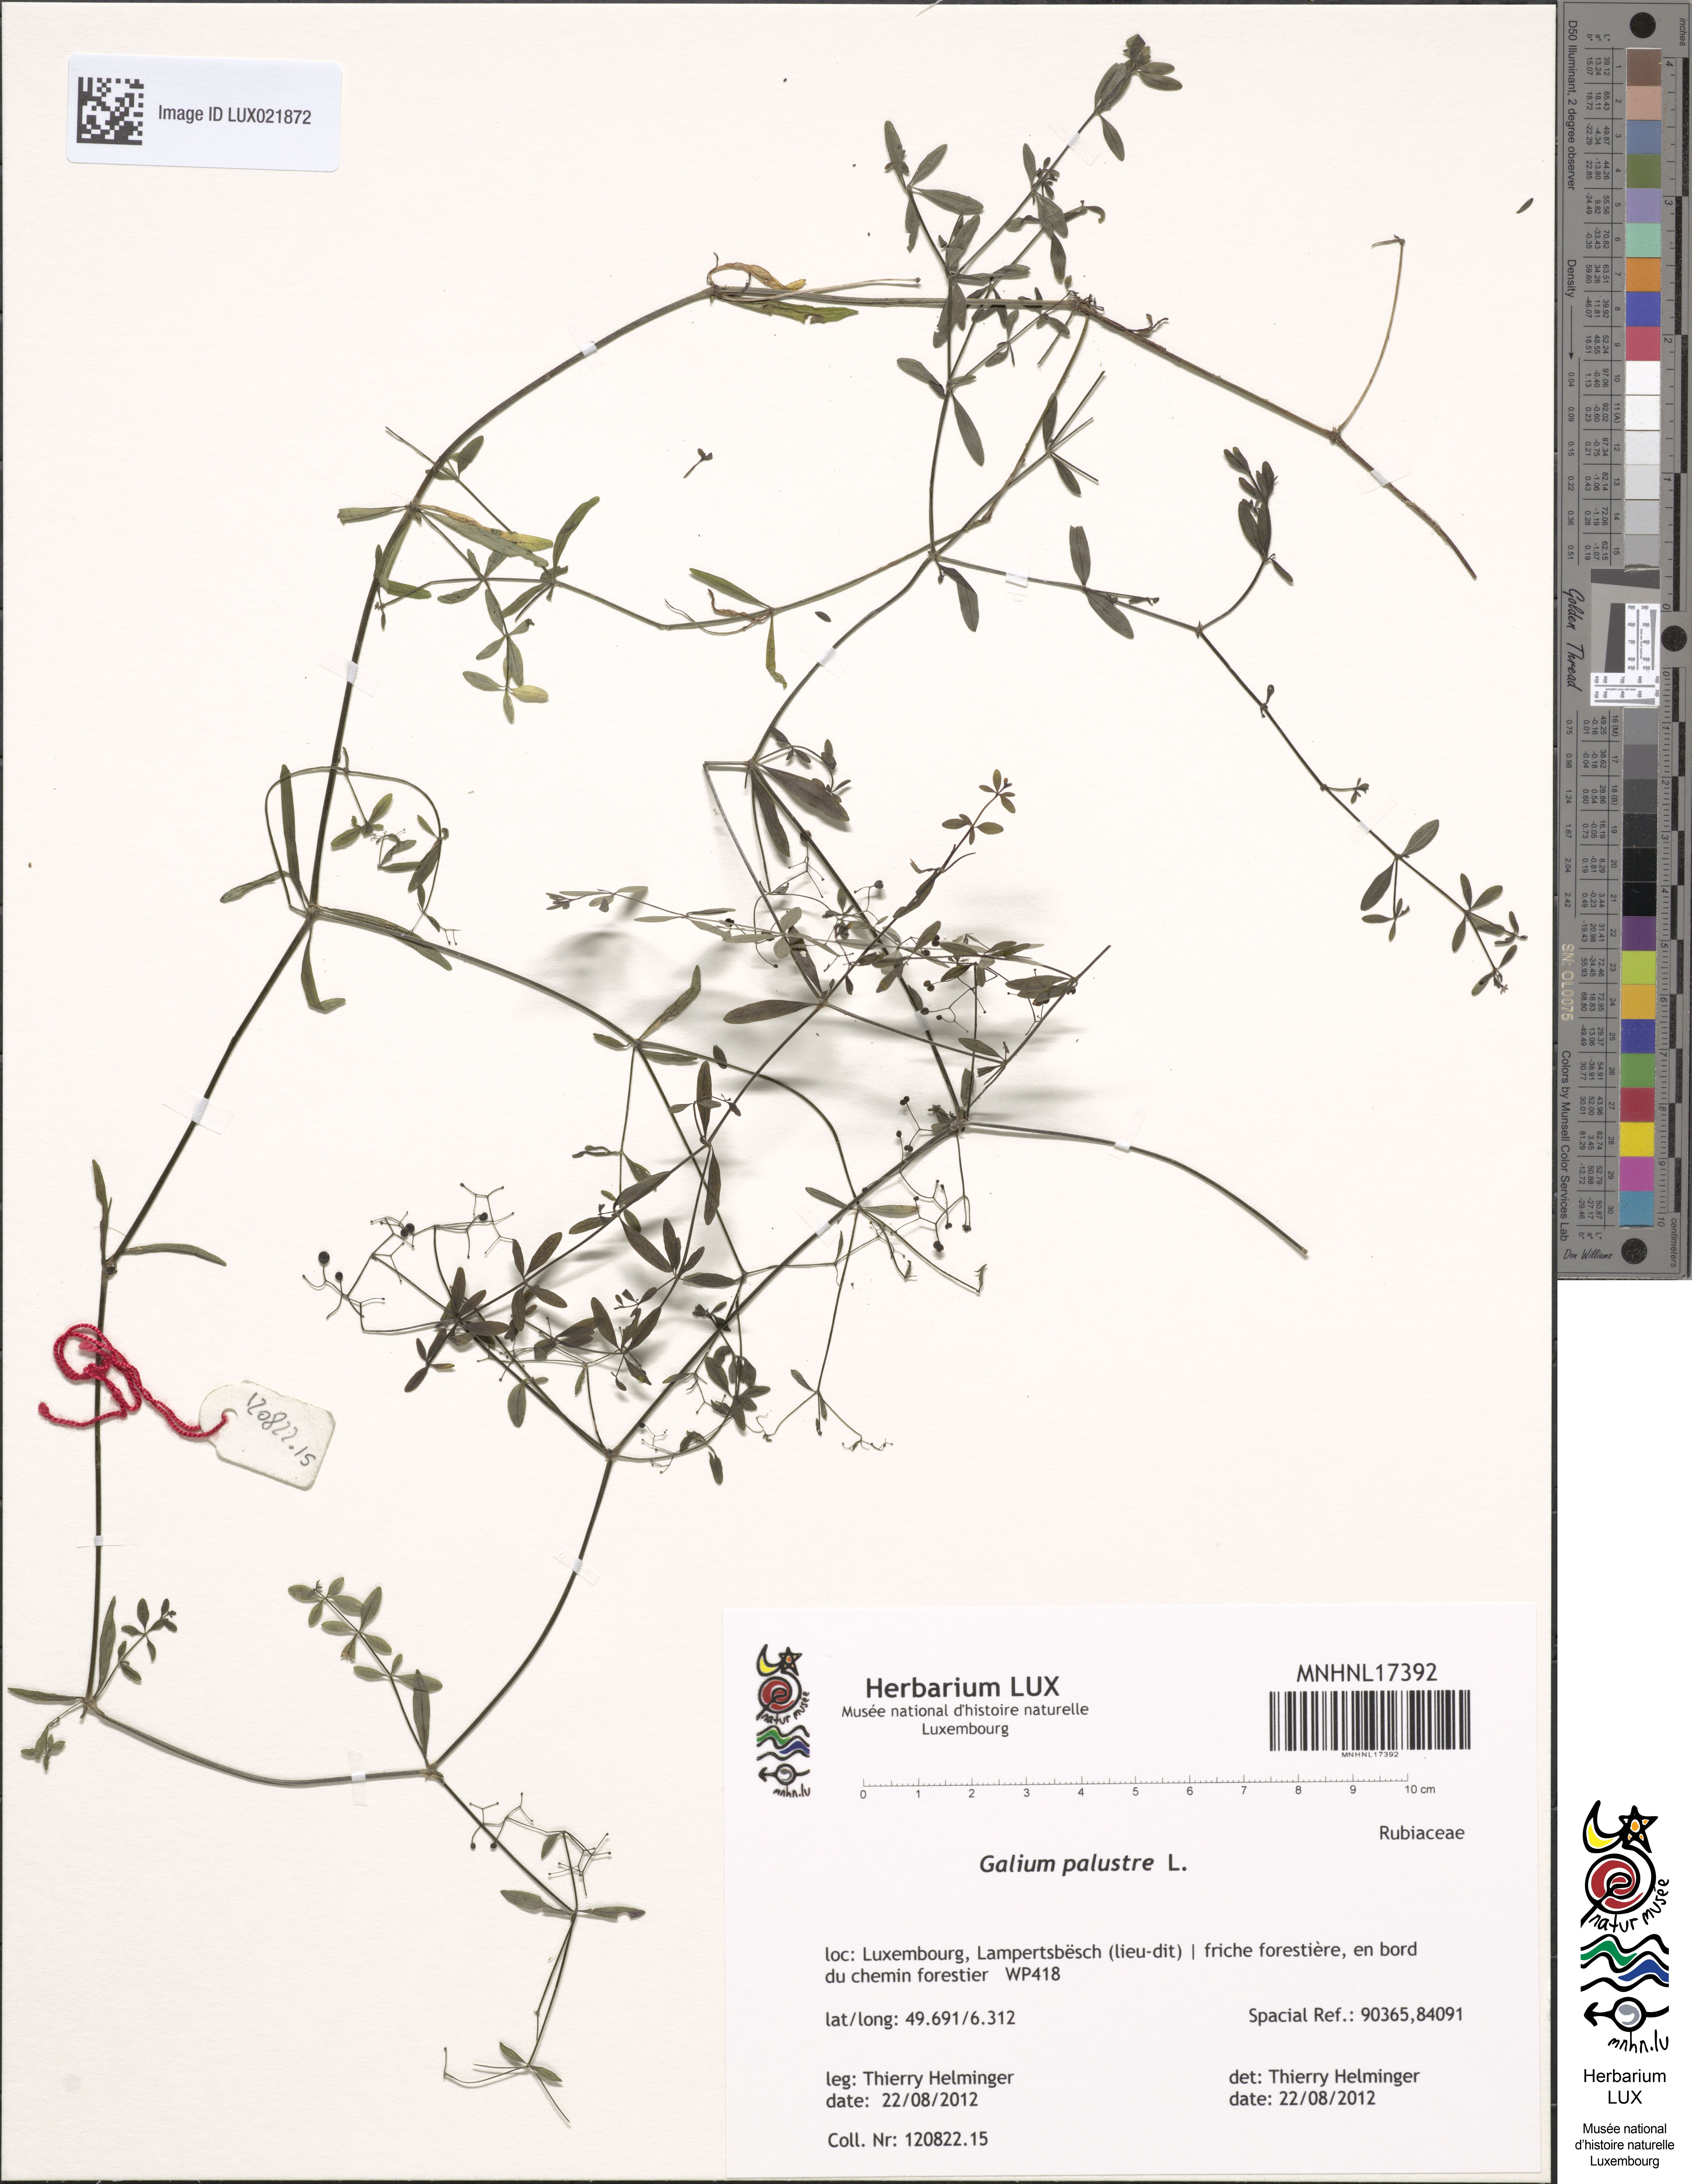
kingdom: Plantae
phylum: Tracheophyta
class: Magnoliopsida
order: Gentianales
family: Rubiaceae
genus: Galium
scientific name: Galium palustre
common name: Common marsh-bedstraw
